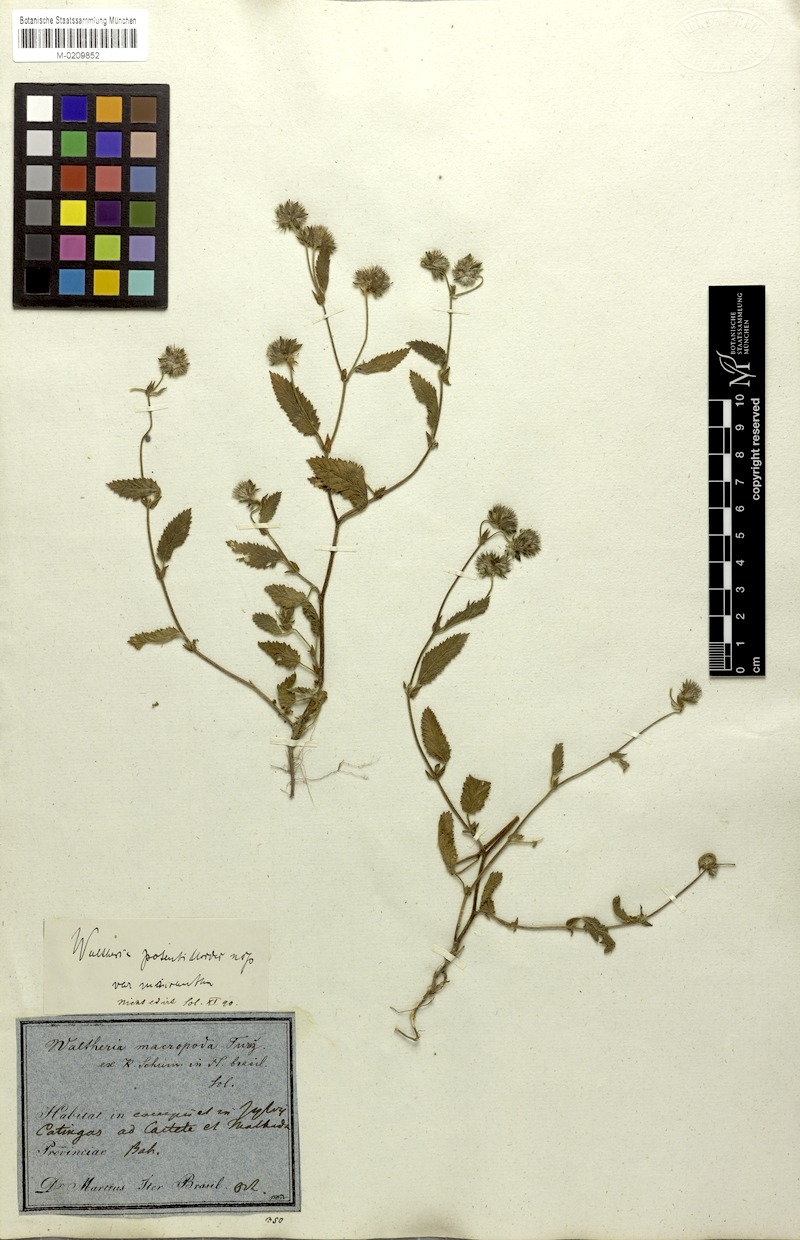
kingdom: Plantae
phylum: Tracheophyta
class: Magnoliopsida
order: Malvales
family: Malvaceae
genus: Waltheria
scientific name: Waltheria bracteosa
